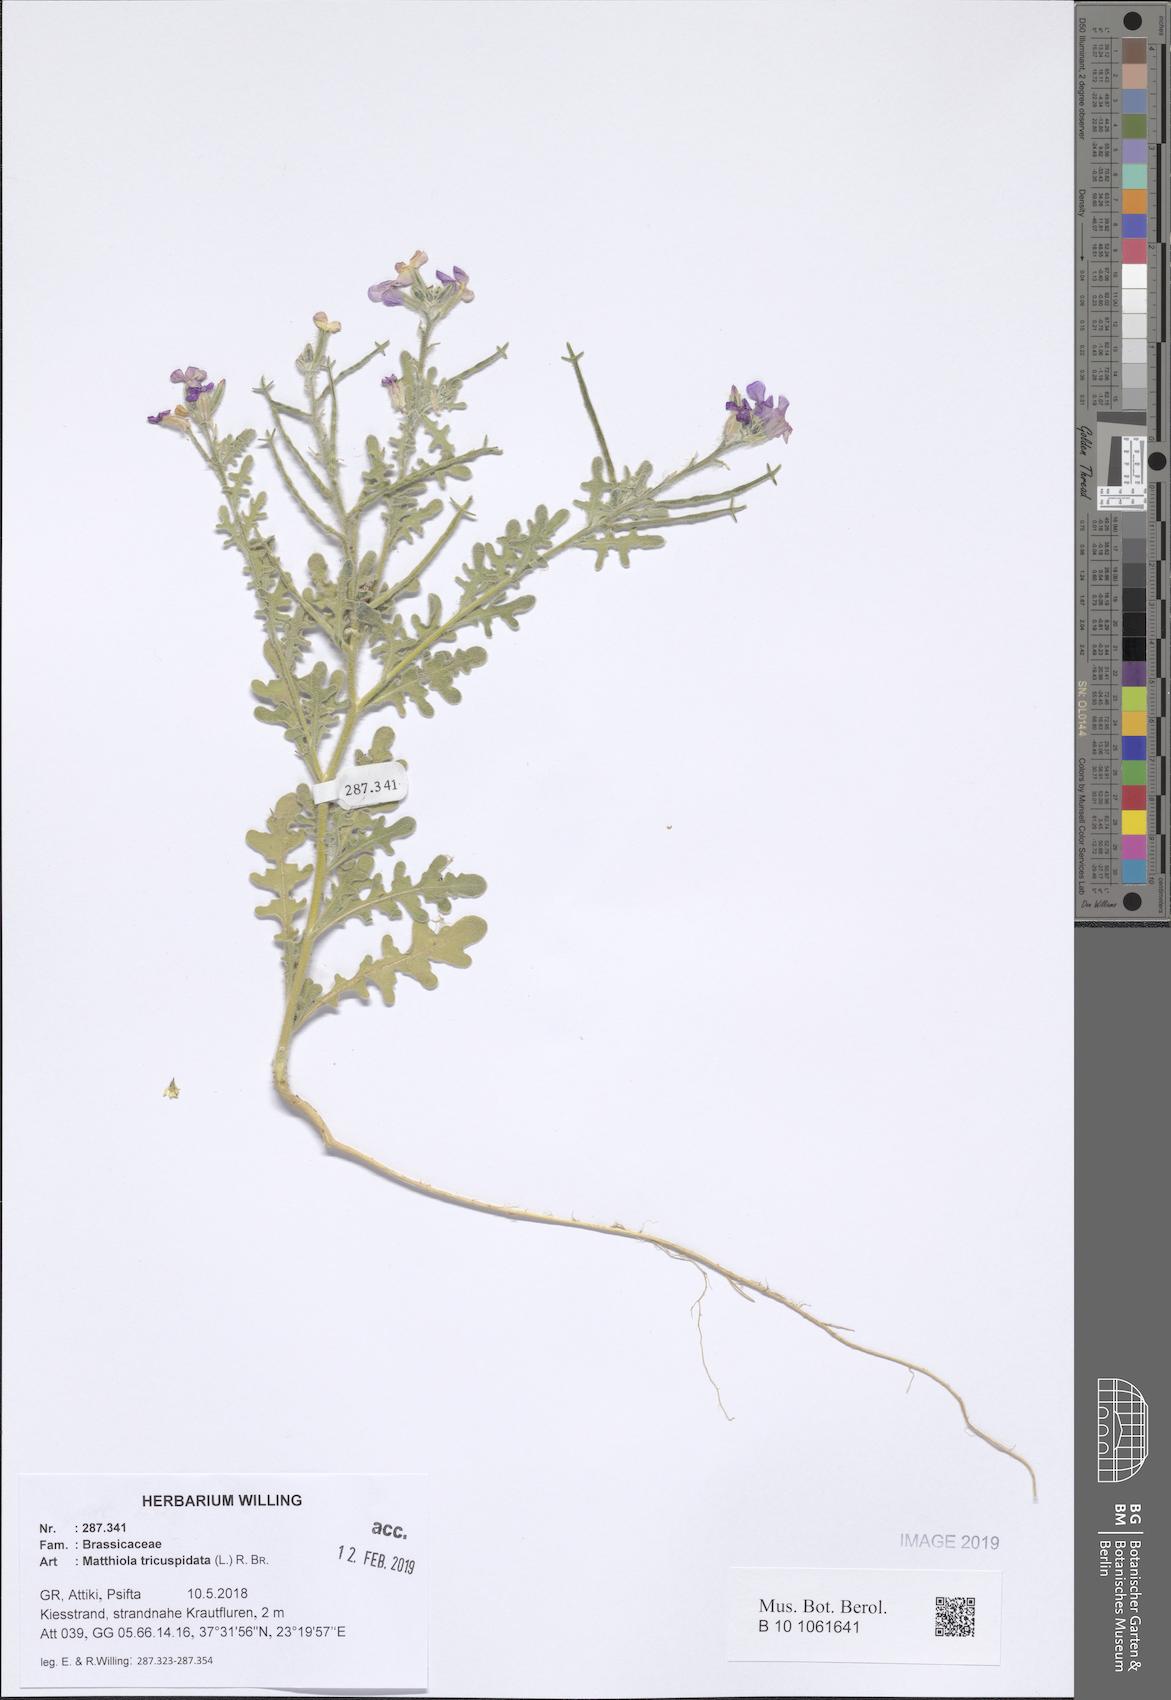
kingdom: Plantae
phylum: Tracheophyta
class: Magnoliopsida
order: Brassicales
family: Brassicaceae
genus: Matthiola
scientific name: Matthiola tricuspidata
